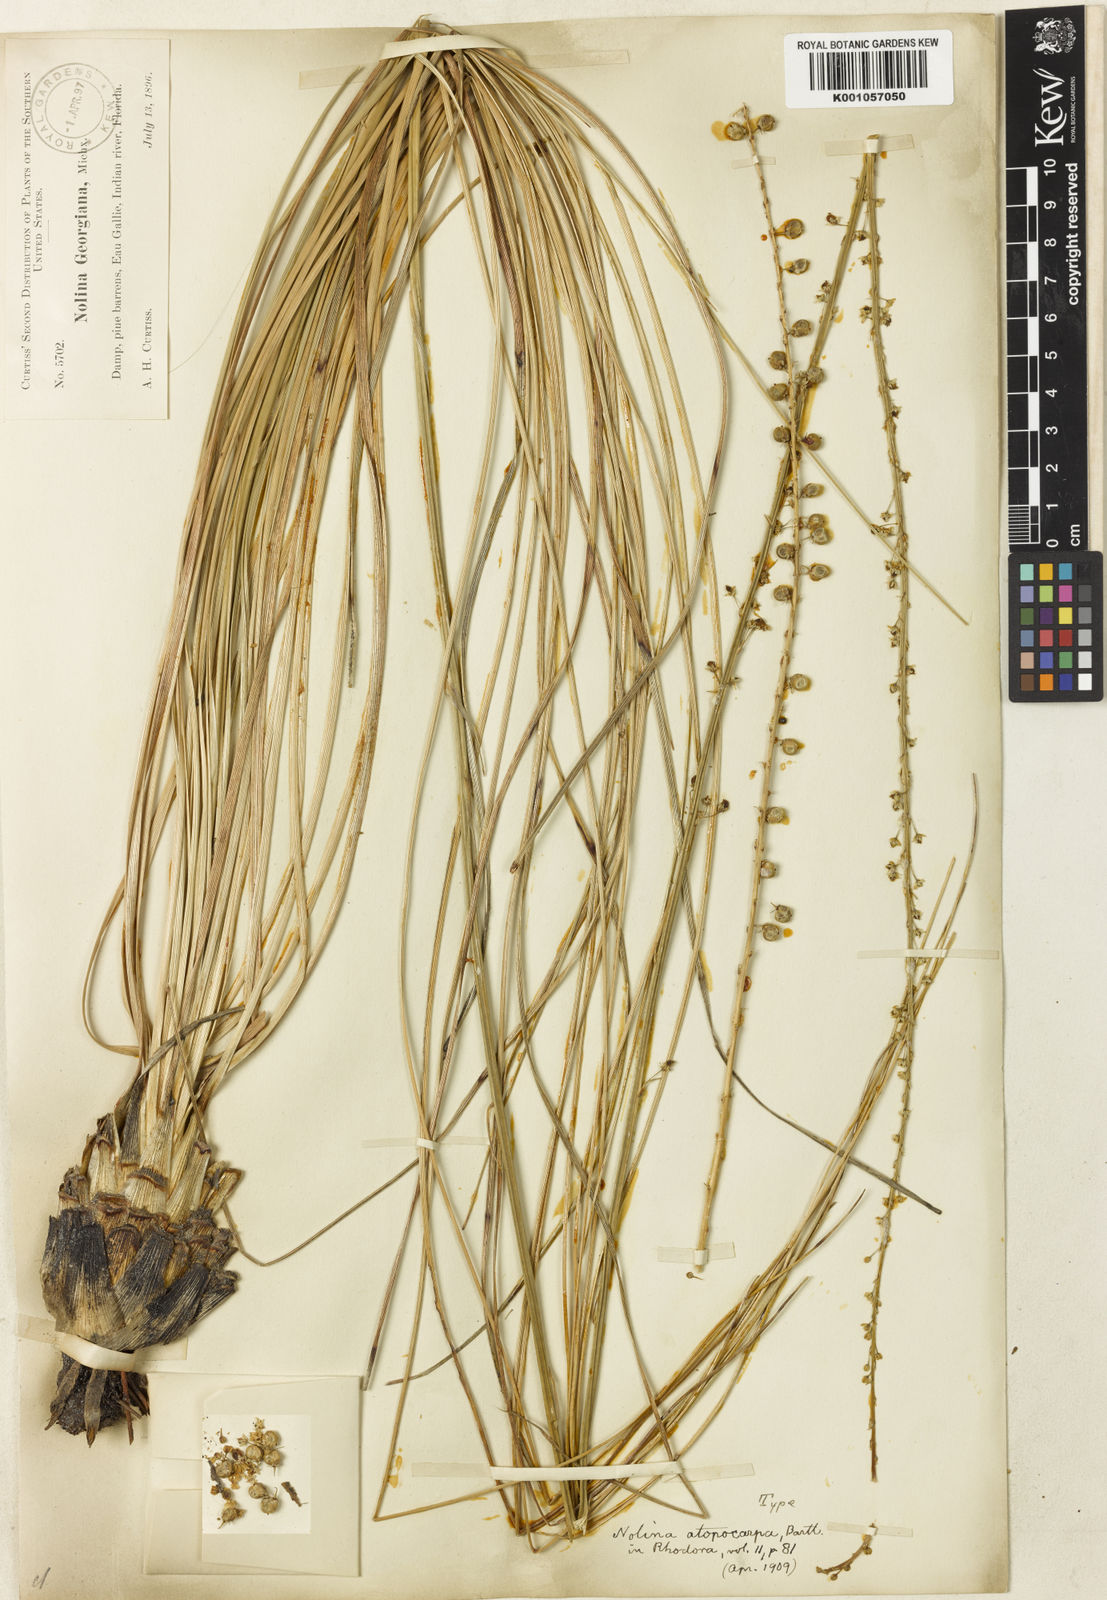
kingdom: Plantae
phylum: Tracheophyta
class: Liliopsida
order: Asparagales
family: Asparagaceae
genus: Nolina
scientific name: Nolina atopocarpa
